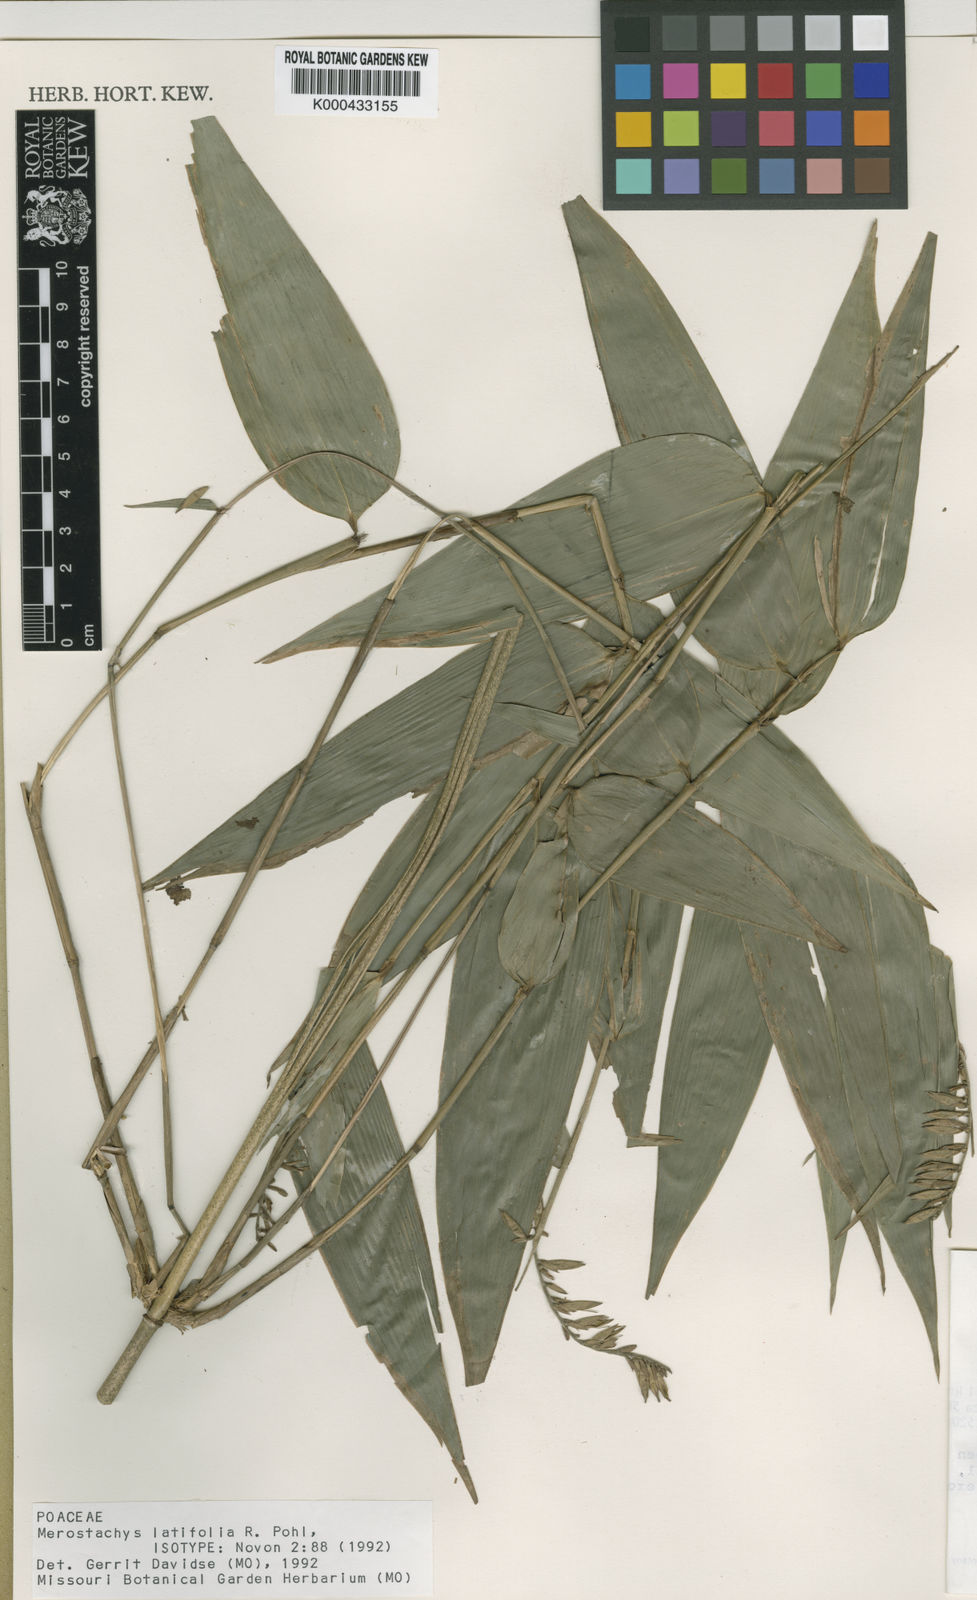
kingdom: Plantae
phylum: Tracheophyta
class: Liliopsida
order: Poales
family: Poaceae
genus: Merostachys
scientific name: Merostachys latifolia
